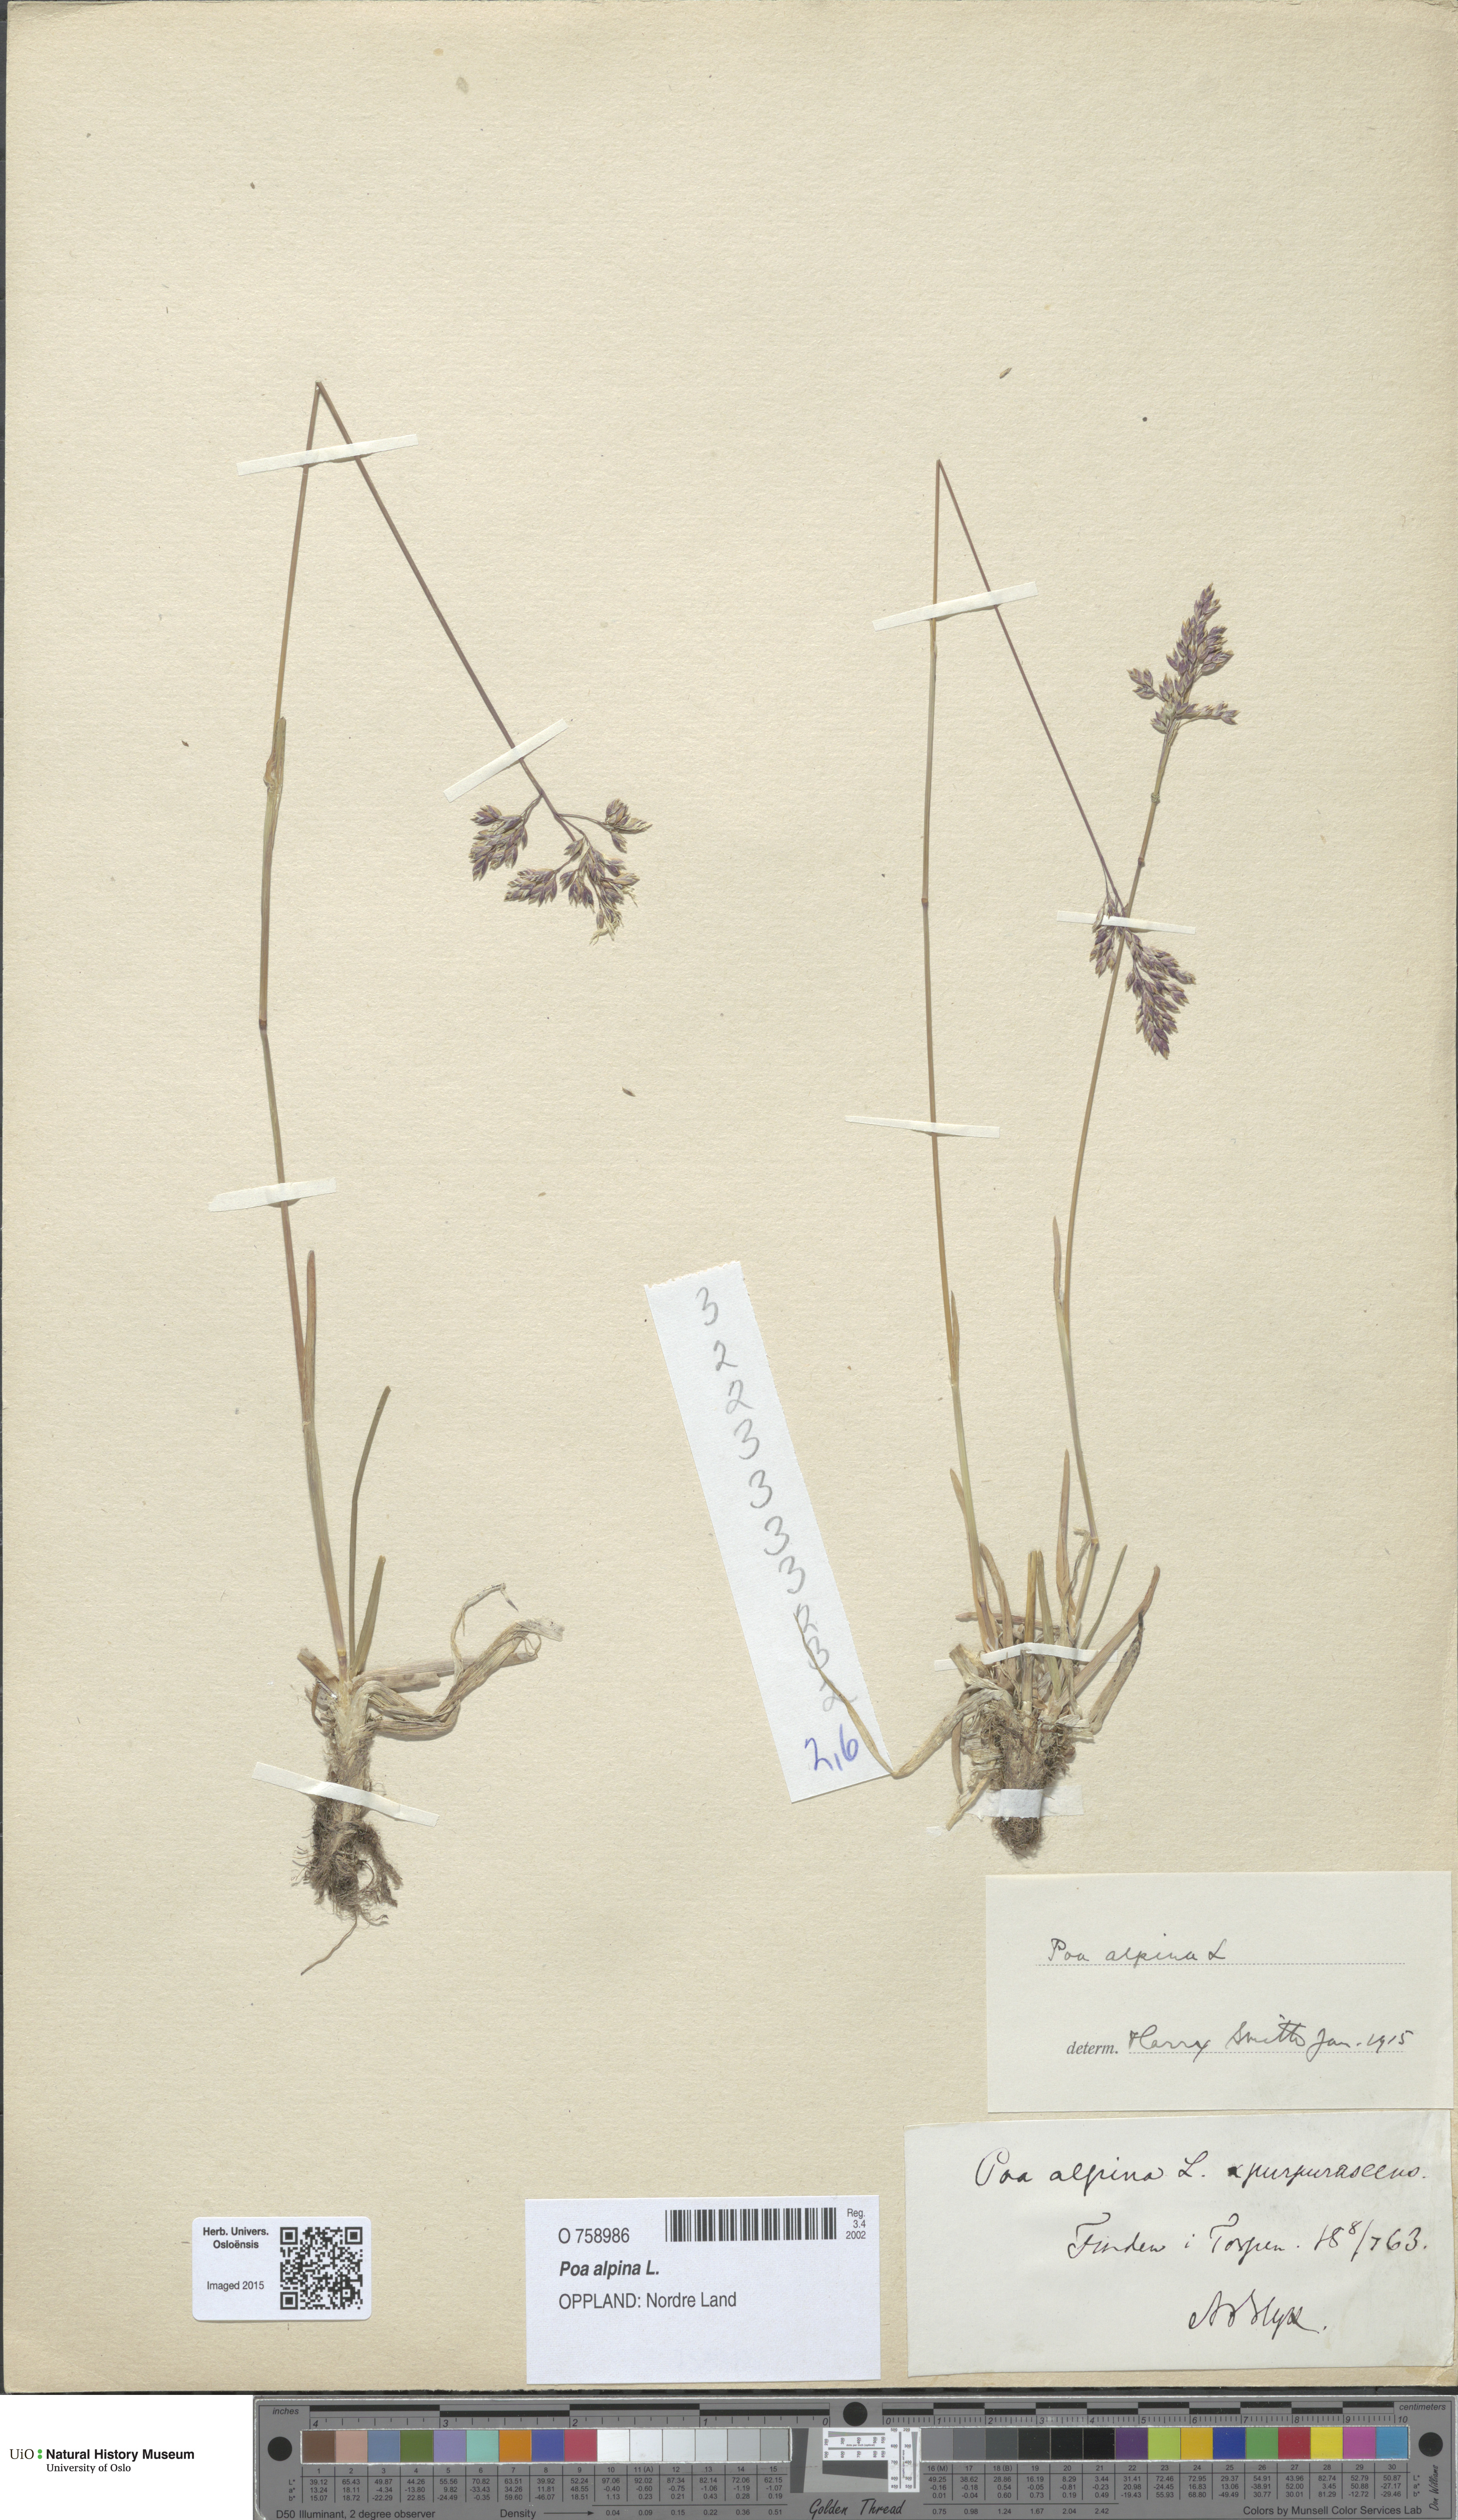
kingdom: Plantae
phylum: Tracheophyta
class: Liliopsida
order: Poales
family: Poaceae
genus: Poa
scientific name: Poa alpina
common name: Alpine bluegrass
